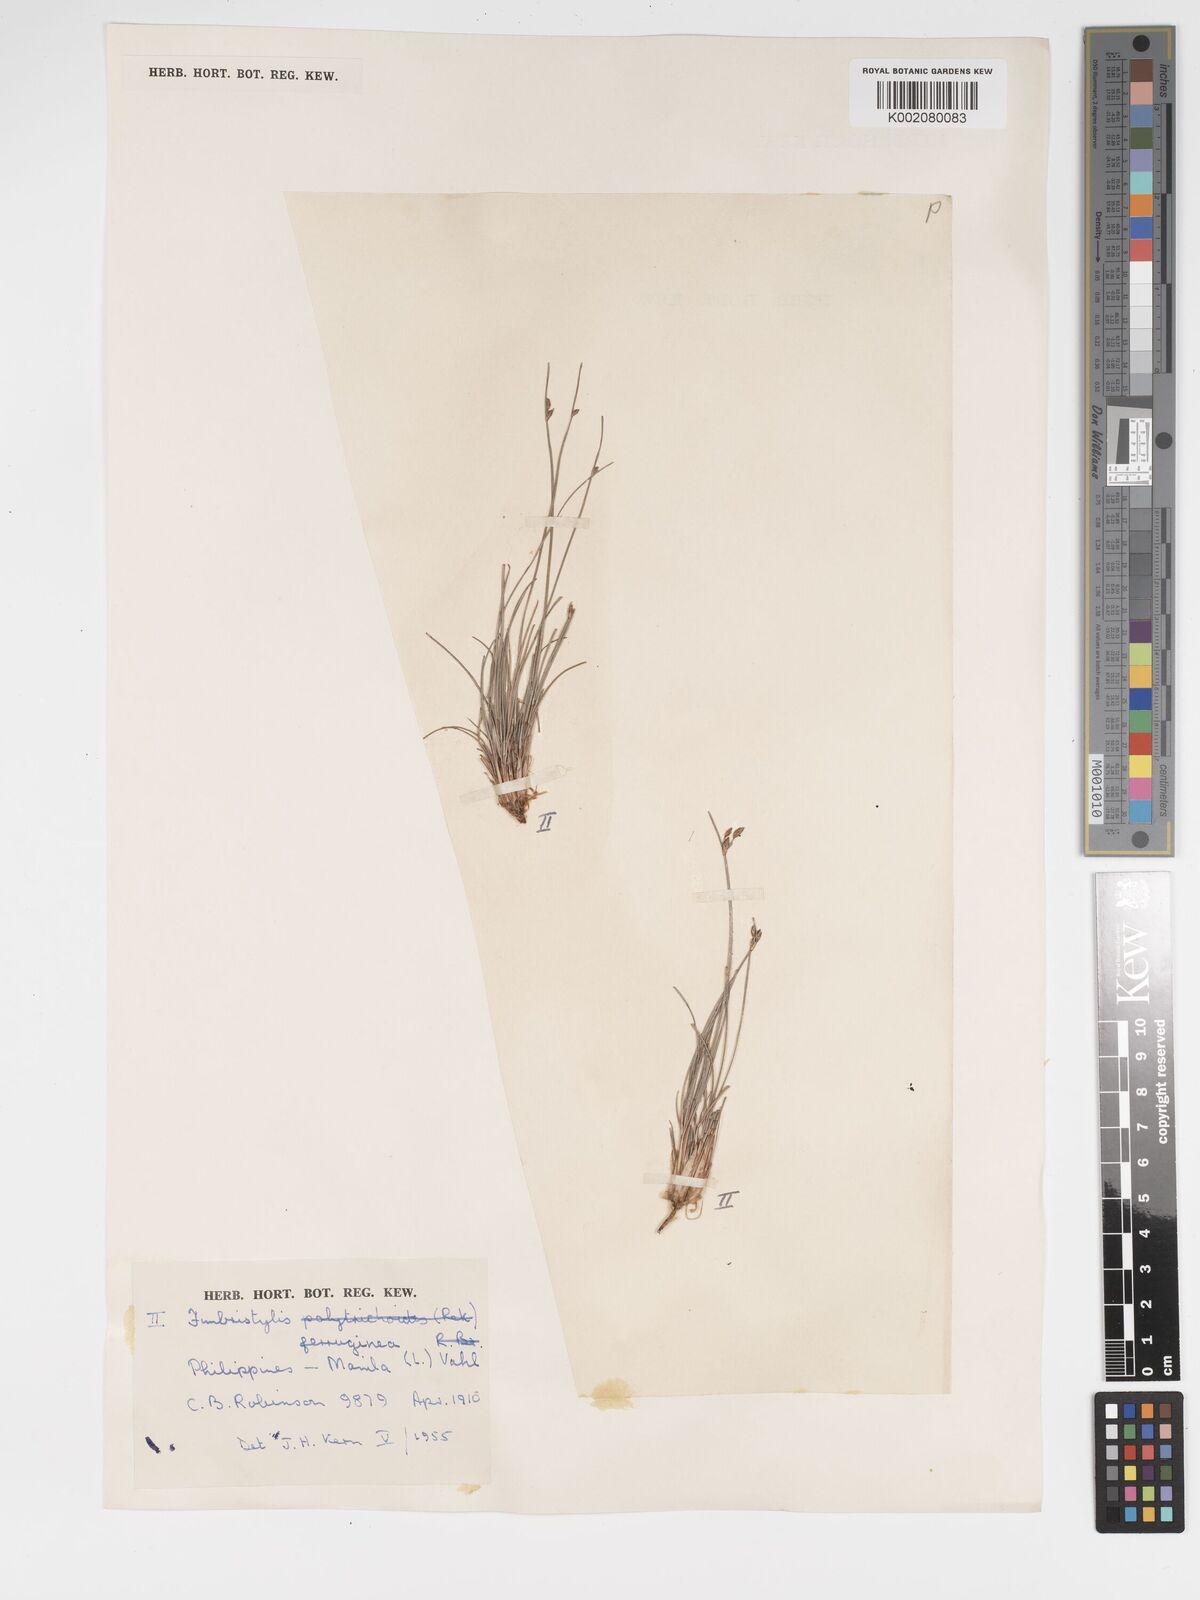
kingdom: Plantae
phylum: Tracheophyta
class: Liliopsida
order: Poales
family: Cyperaceae
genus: Fimbristylis
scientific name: Fimbristylis ferruginea
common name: West indian fimbry
